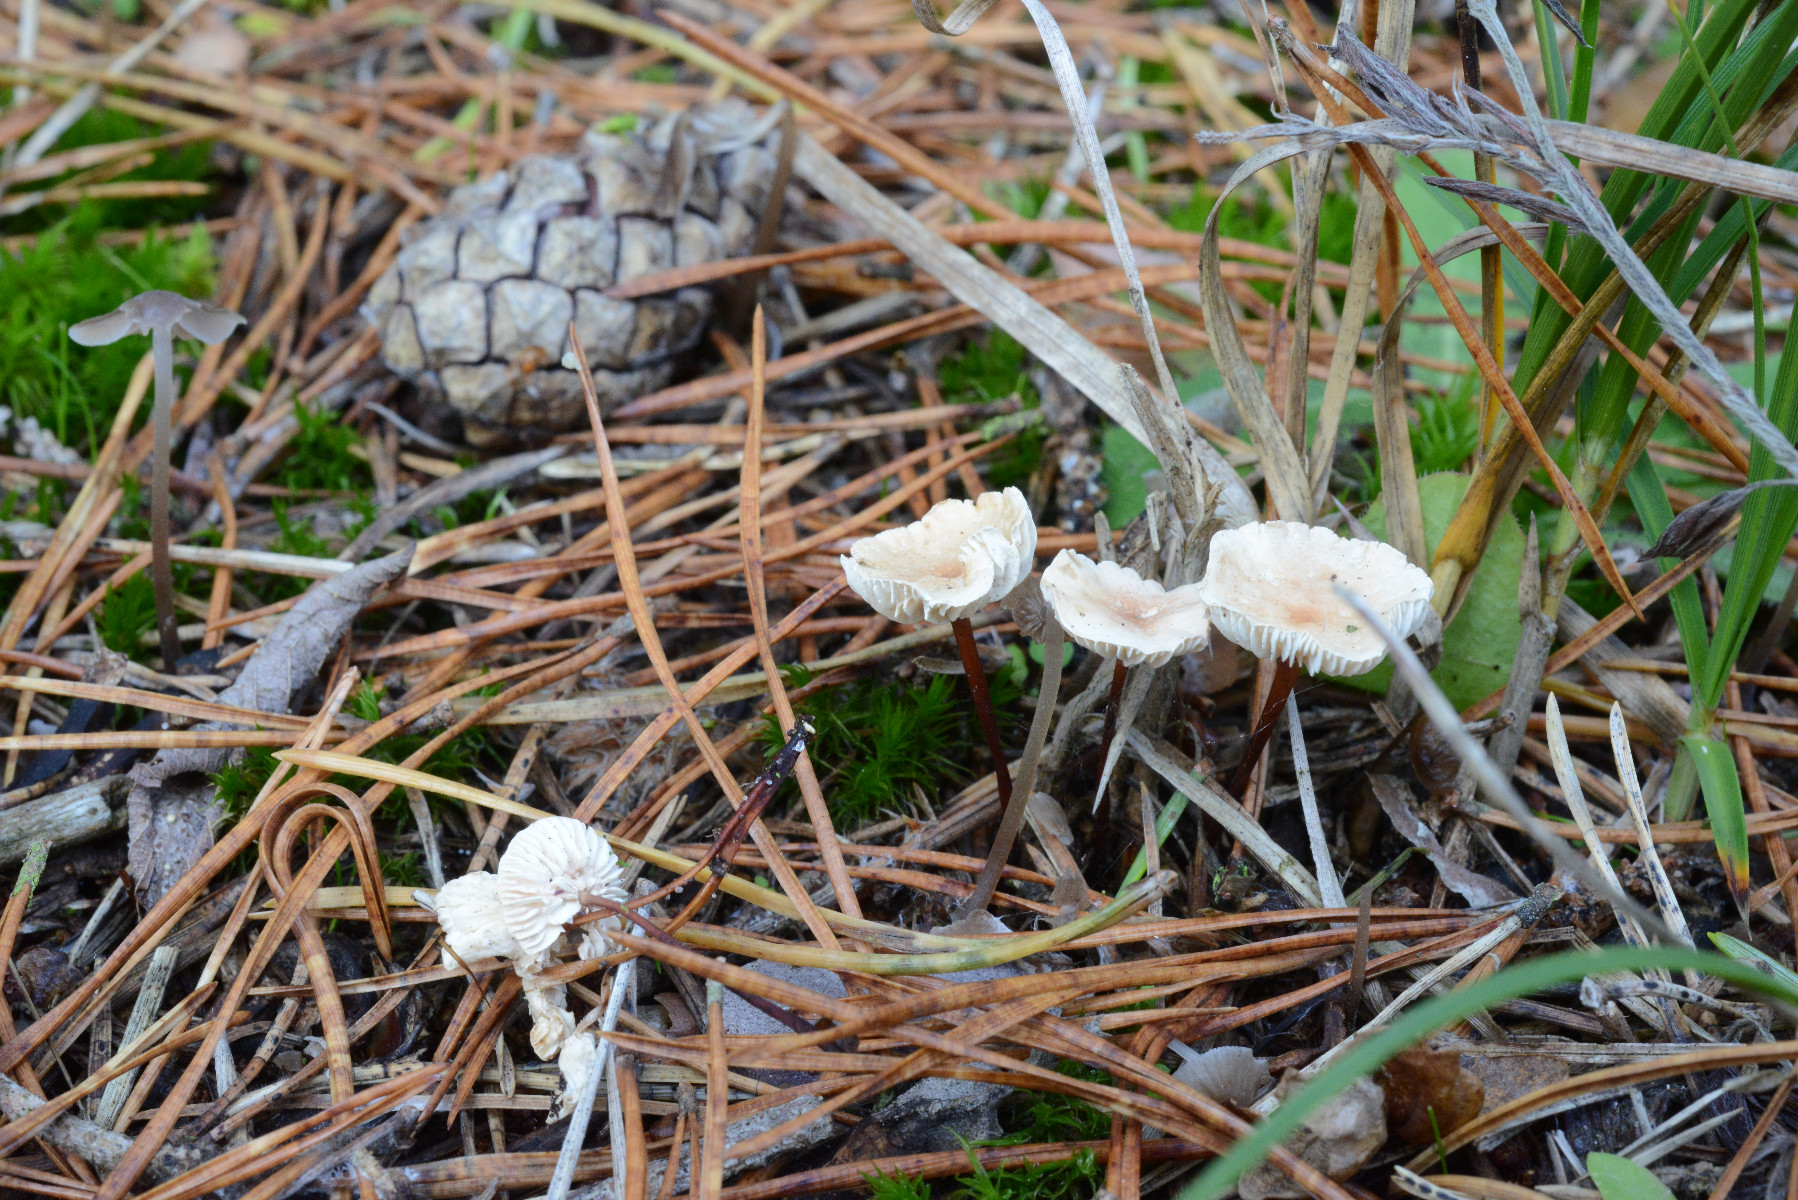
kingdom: Fungi
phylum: Basidiomycota
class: Agaricomycetes
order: Agaricales
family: Omphalotaceae
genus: Mycetinis
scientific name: Mycetinis scorodonius
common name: lille løghat
